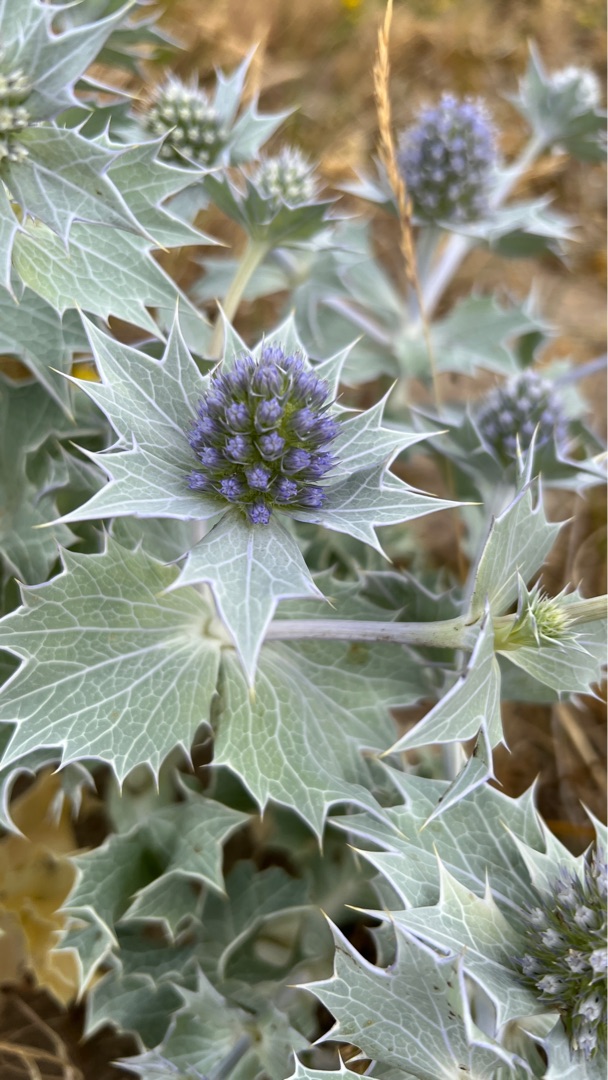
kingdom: Plantae
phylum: Tracheophyta
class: Magnoliopsida
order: Apiales
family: Apiaceae
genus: Eryngium
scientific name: Eryngium maritimum
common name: Strand-mandstro
